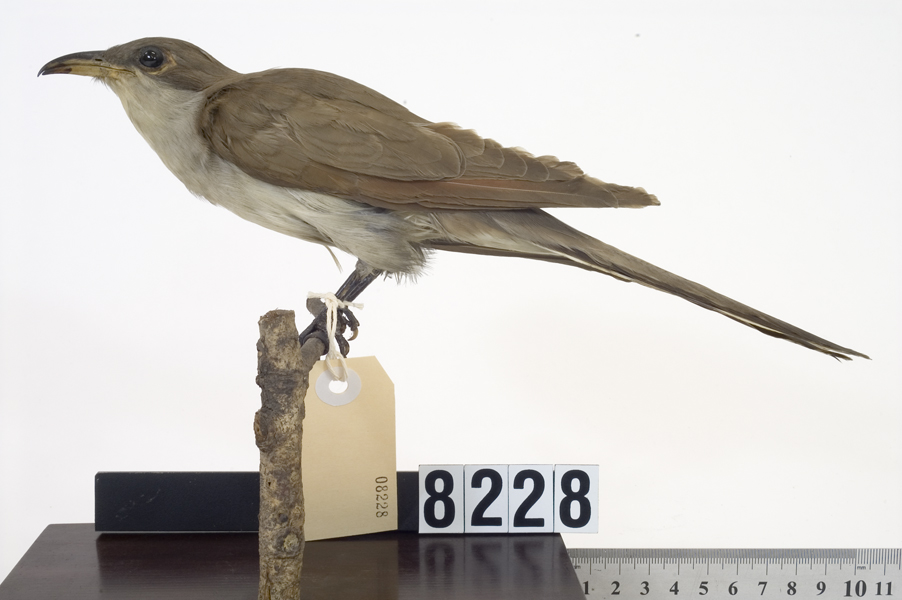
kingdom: Animalia
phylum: Chordata
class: Aves
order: Cuculiformes
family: Cuculidae
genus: Coccyzus
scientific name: Coccyzus americanus
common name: Yellow-billed cuckoo
